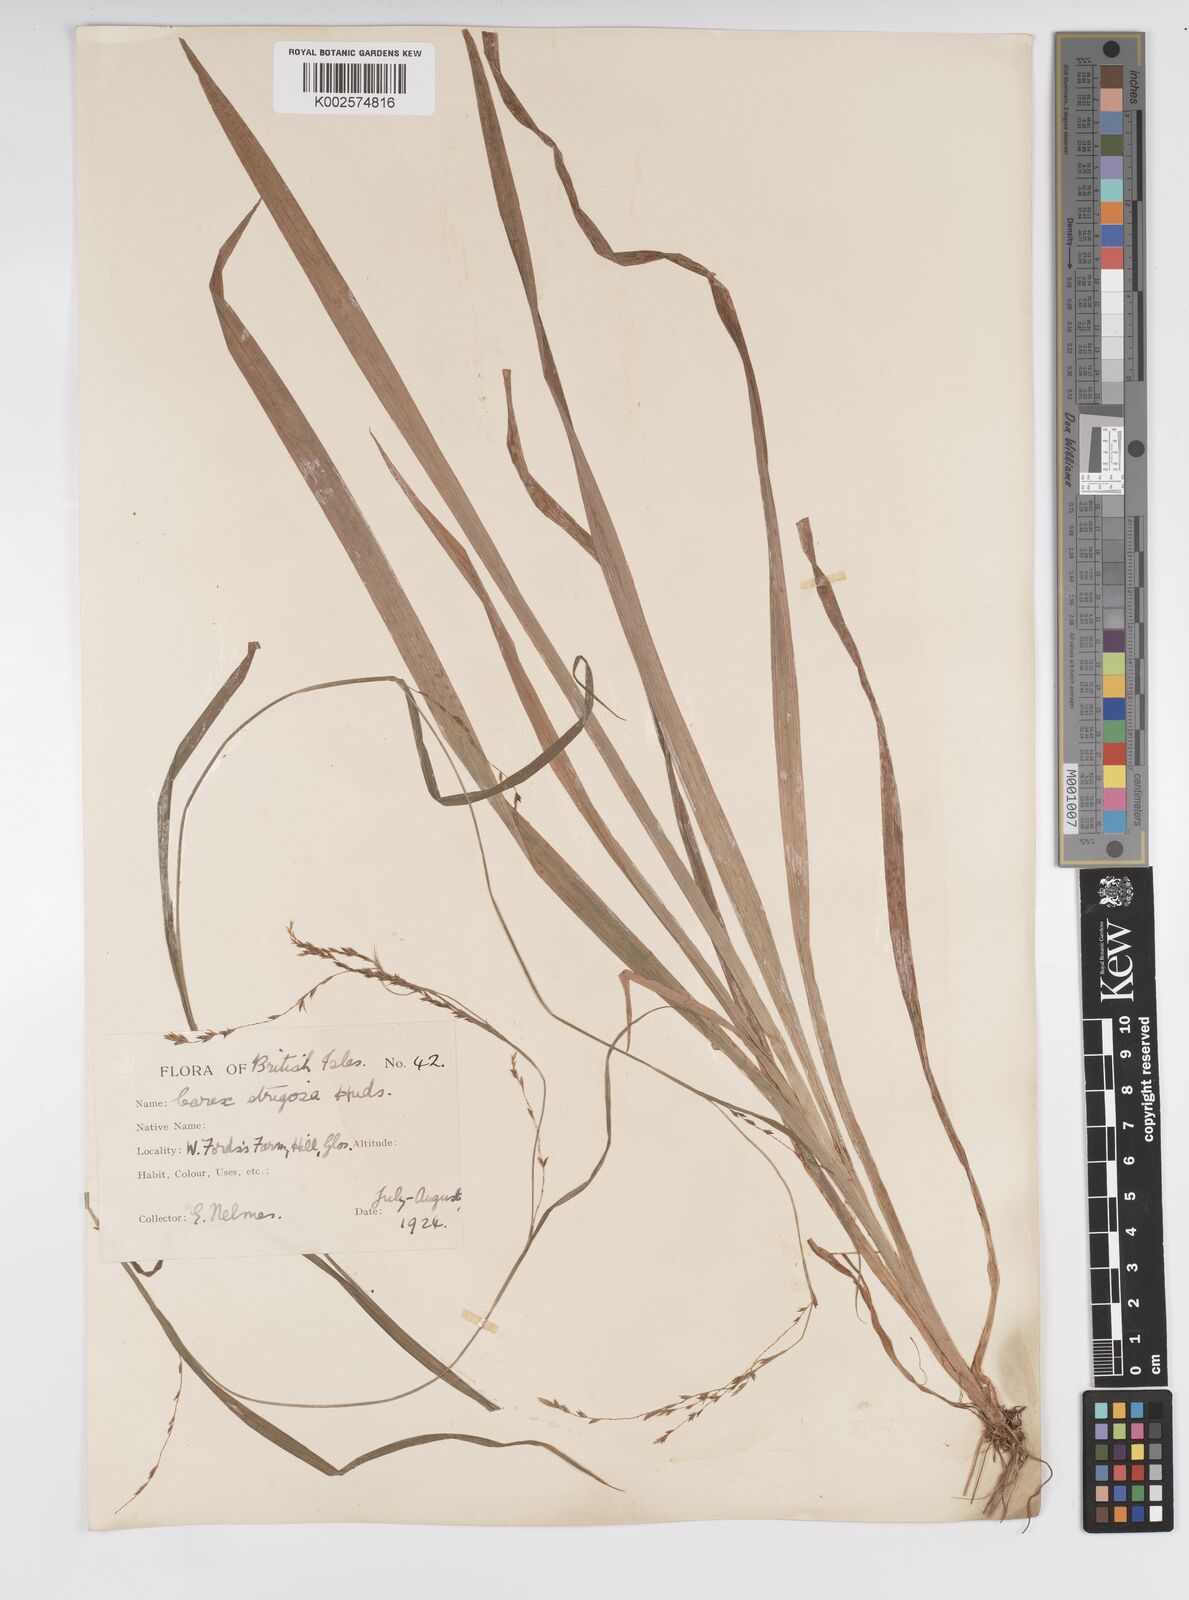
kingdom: Plantae
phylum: Tracheophyta
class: Liliopsida
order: Poales
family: Cyperaceae
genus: Carex
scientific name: Carex strigosa
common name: Thin-spiked wood-sedge
